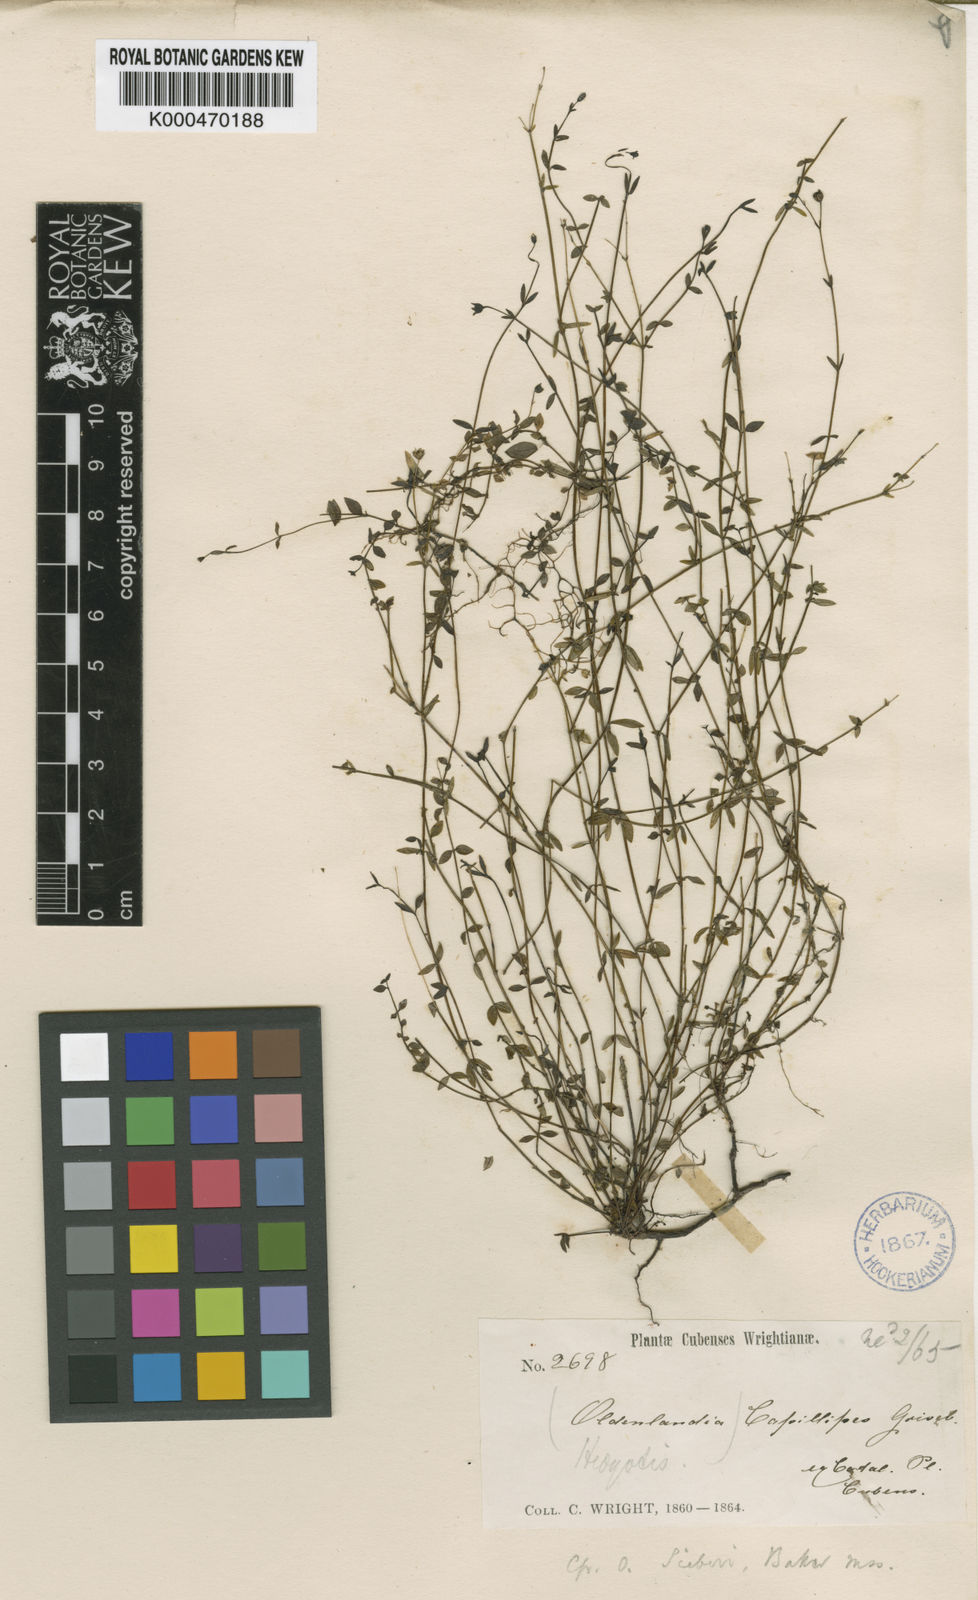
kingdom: Plantae
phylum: Tracheophyta
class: Magnoliopsida
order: Gentianales
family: Rubiaceae
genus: Oldenlandia
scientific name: Oldenlandia capillipes
